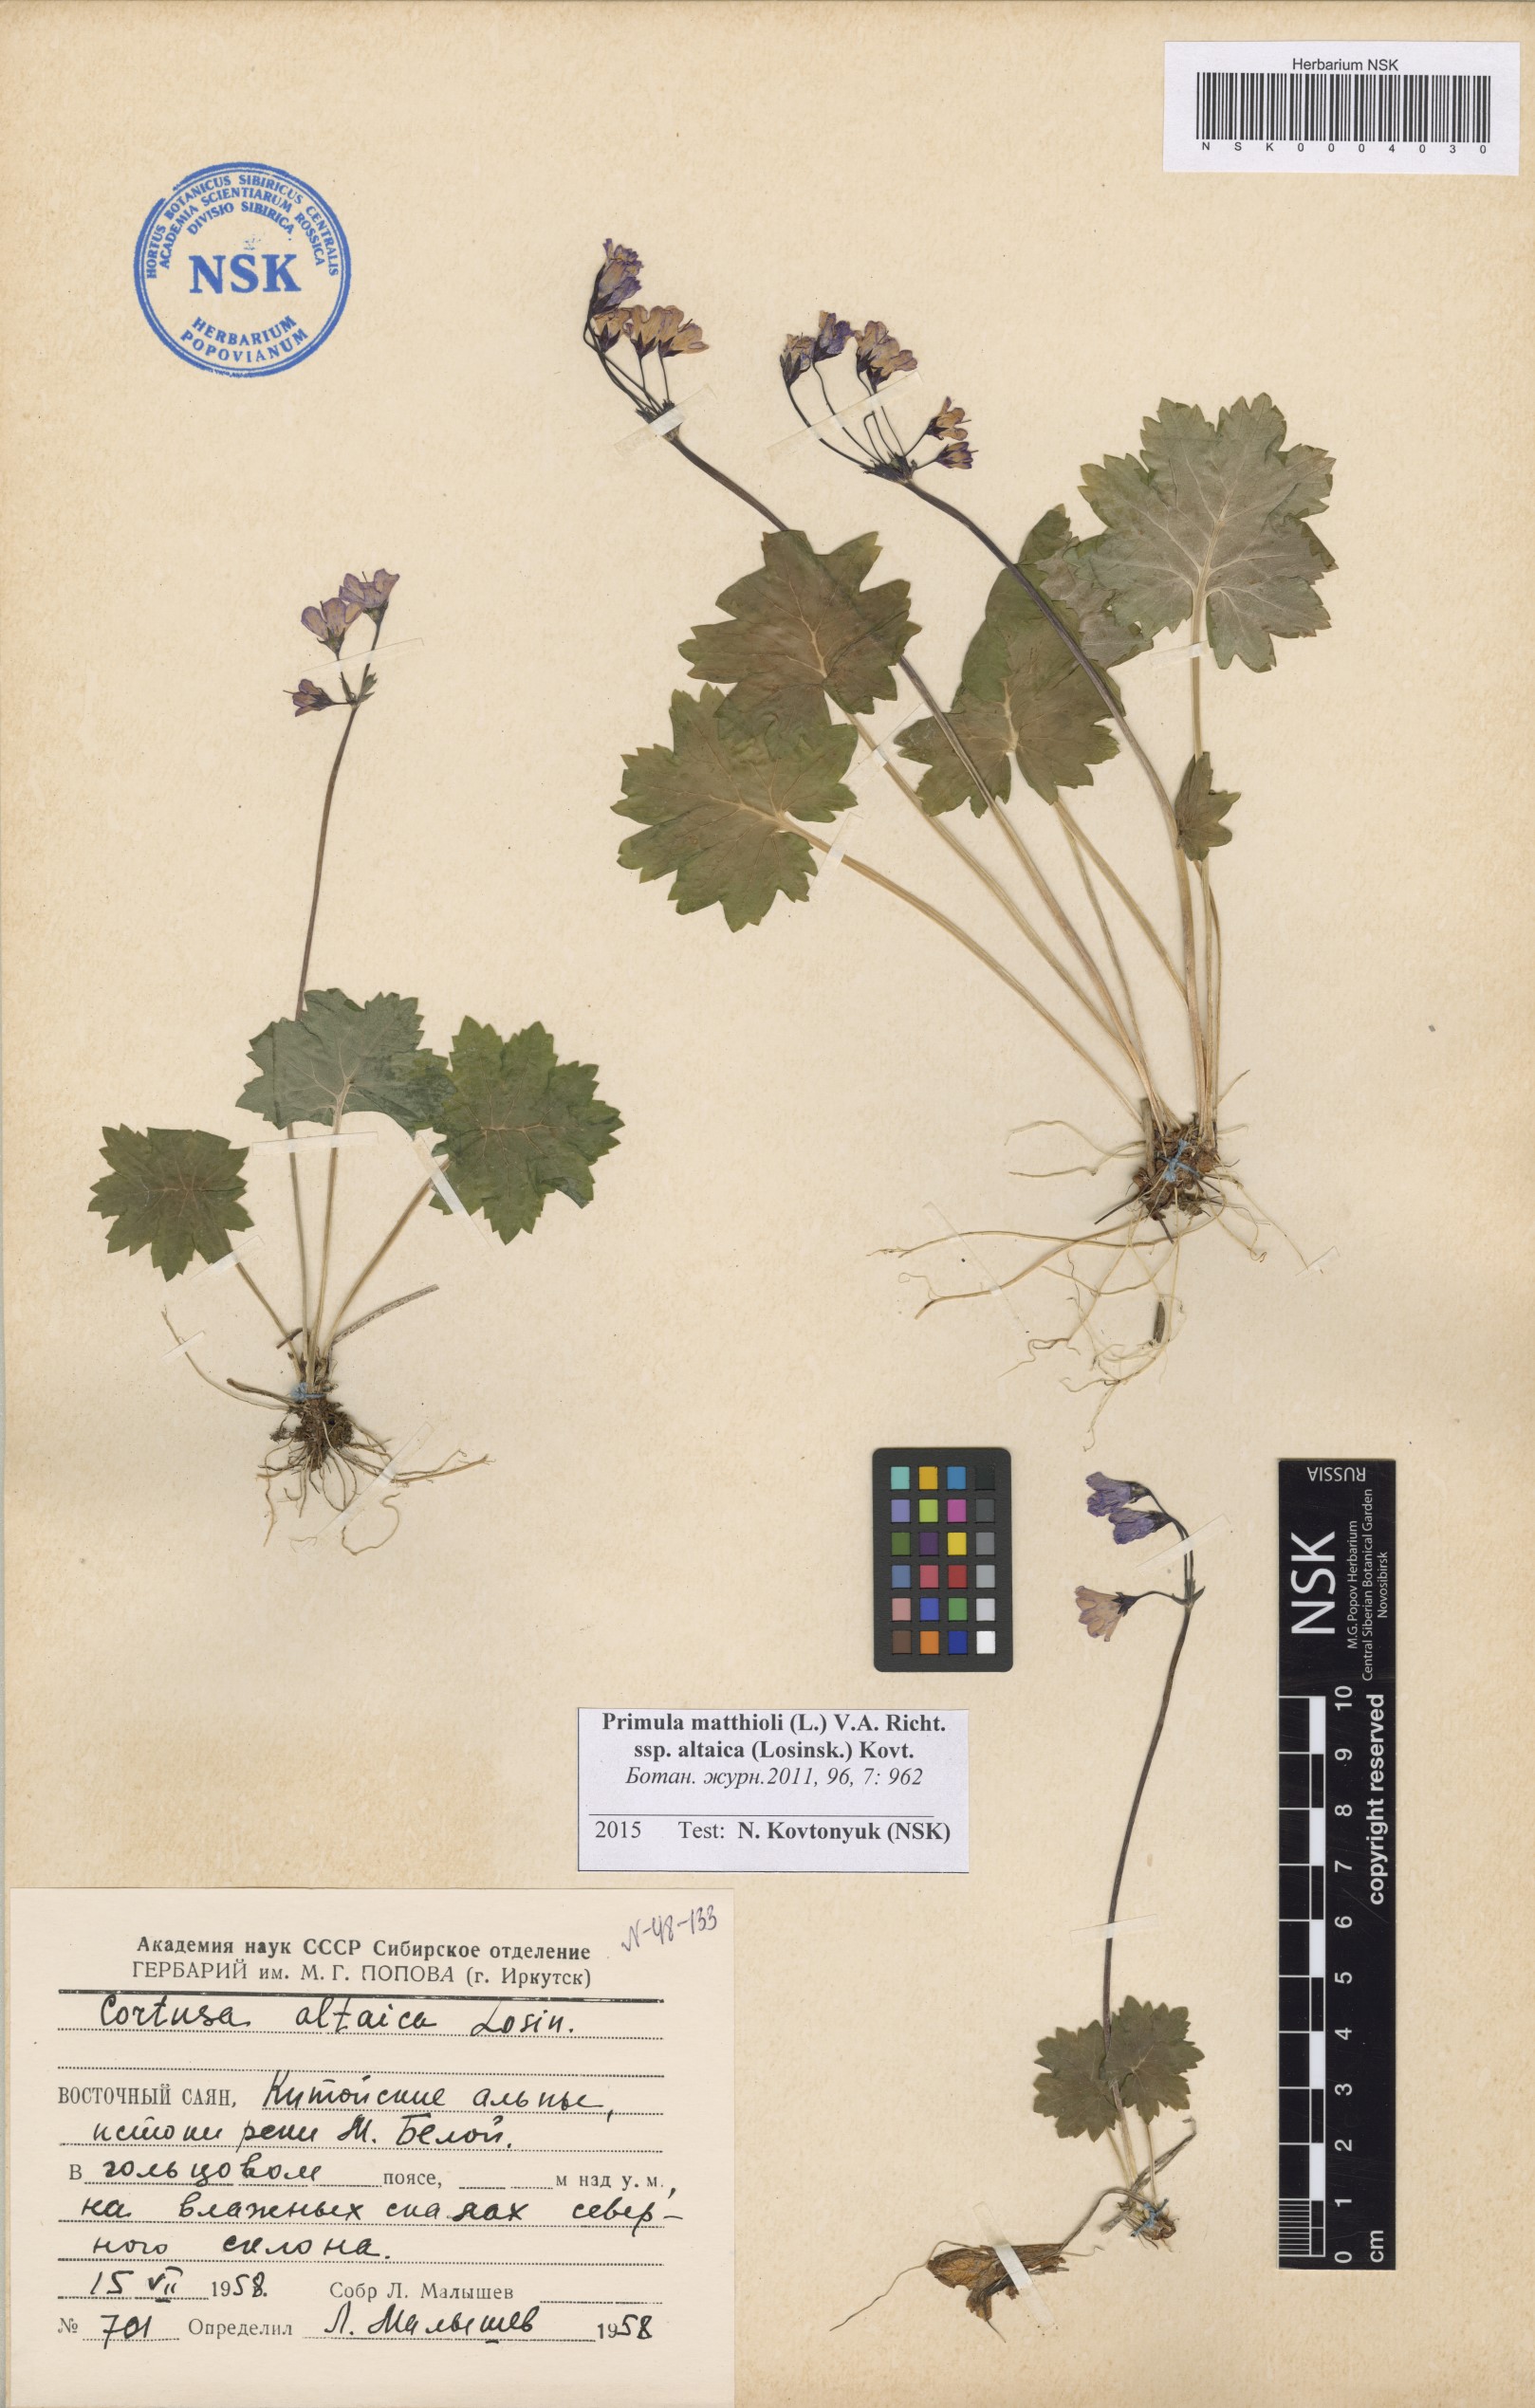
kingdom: Plantae
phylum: Tracheophyta
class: Magnoliopsida
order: Ericales
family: Primulaceae
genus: Primula
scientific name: Primula matthioli
